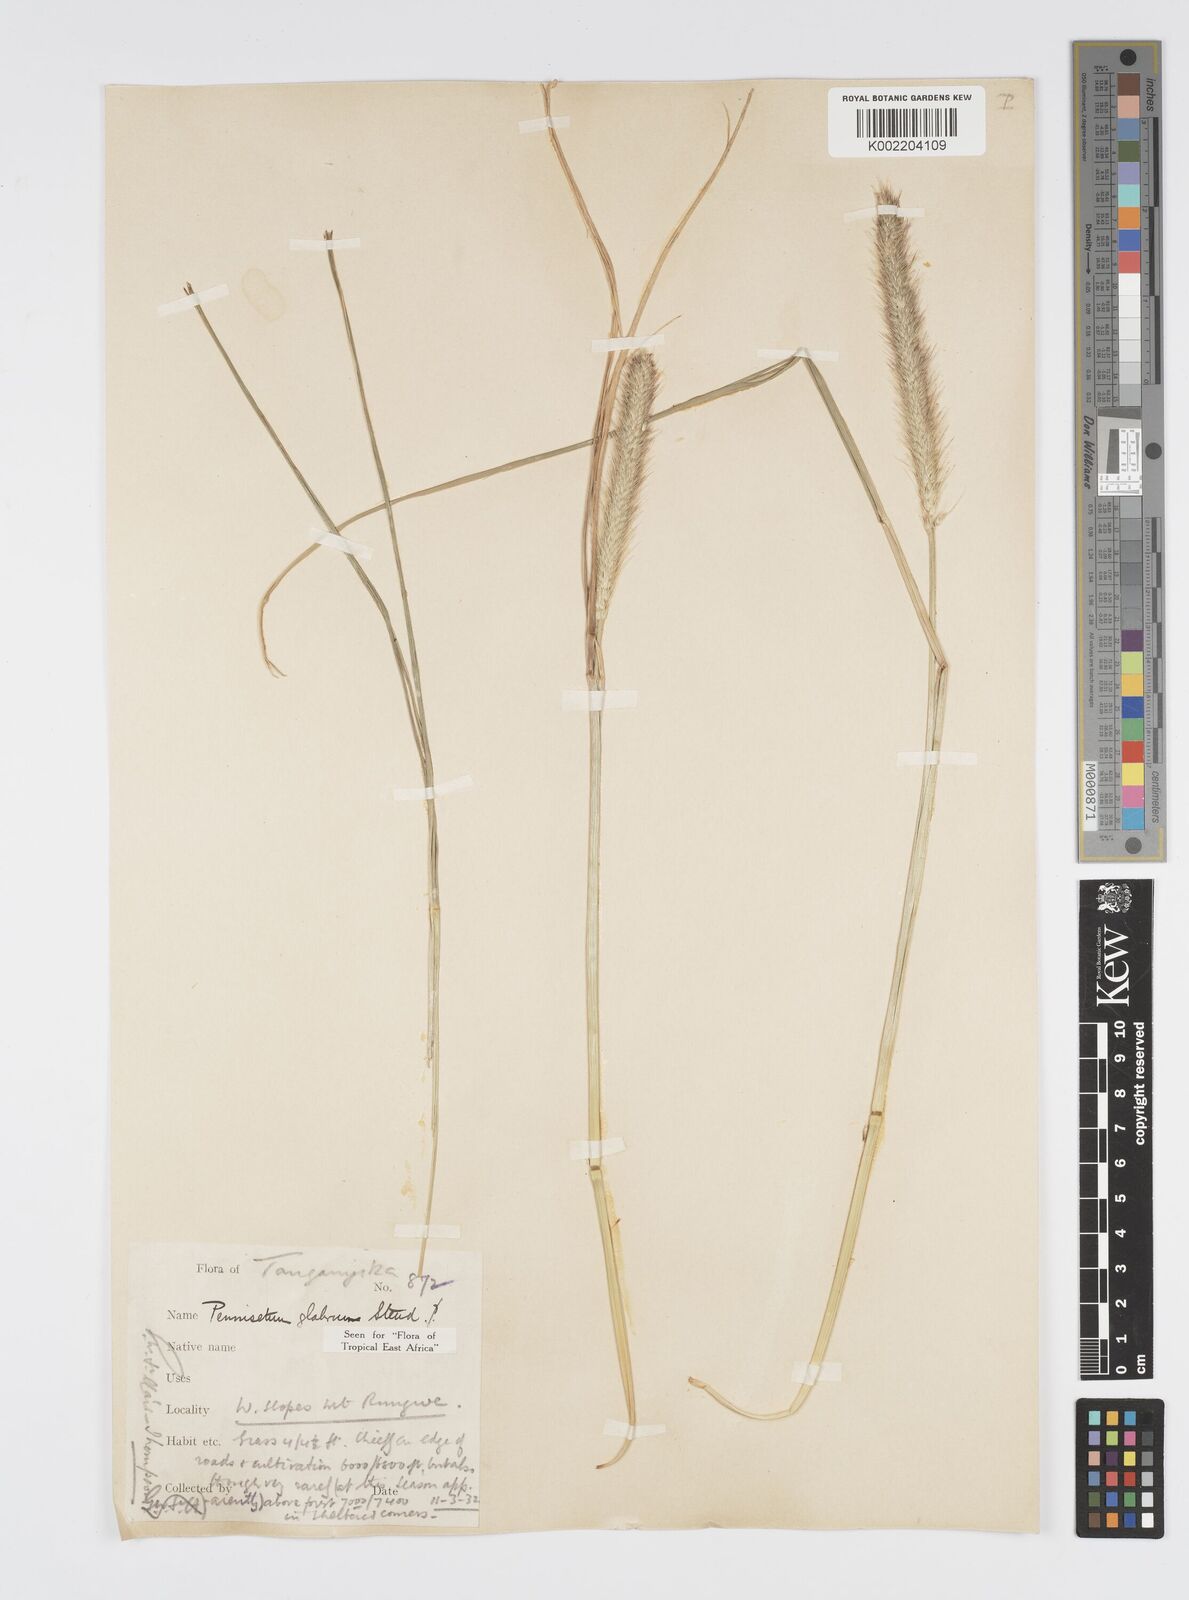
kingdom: Plantae
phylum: Tracheophyta
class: Liliopsida
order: Poales
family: Poaceae
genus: Cenchrus
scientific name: Cenchrus geniculatus
